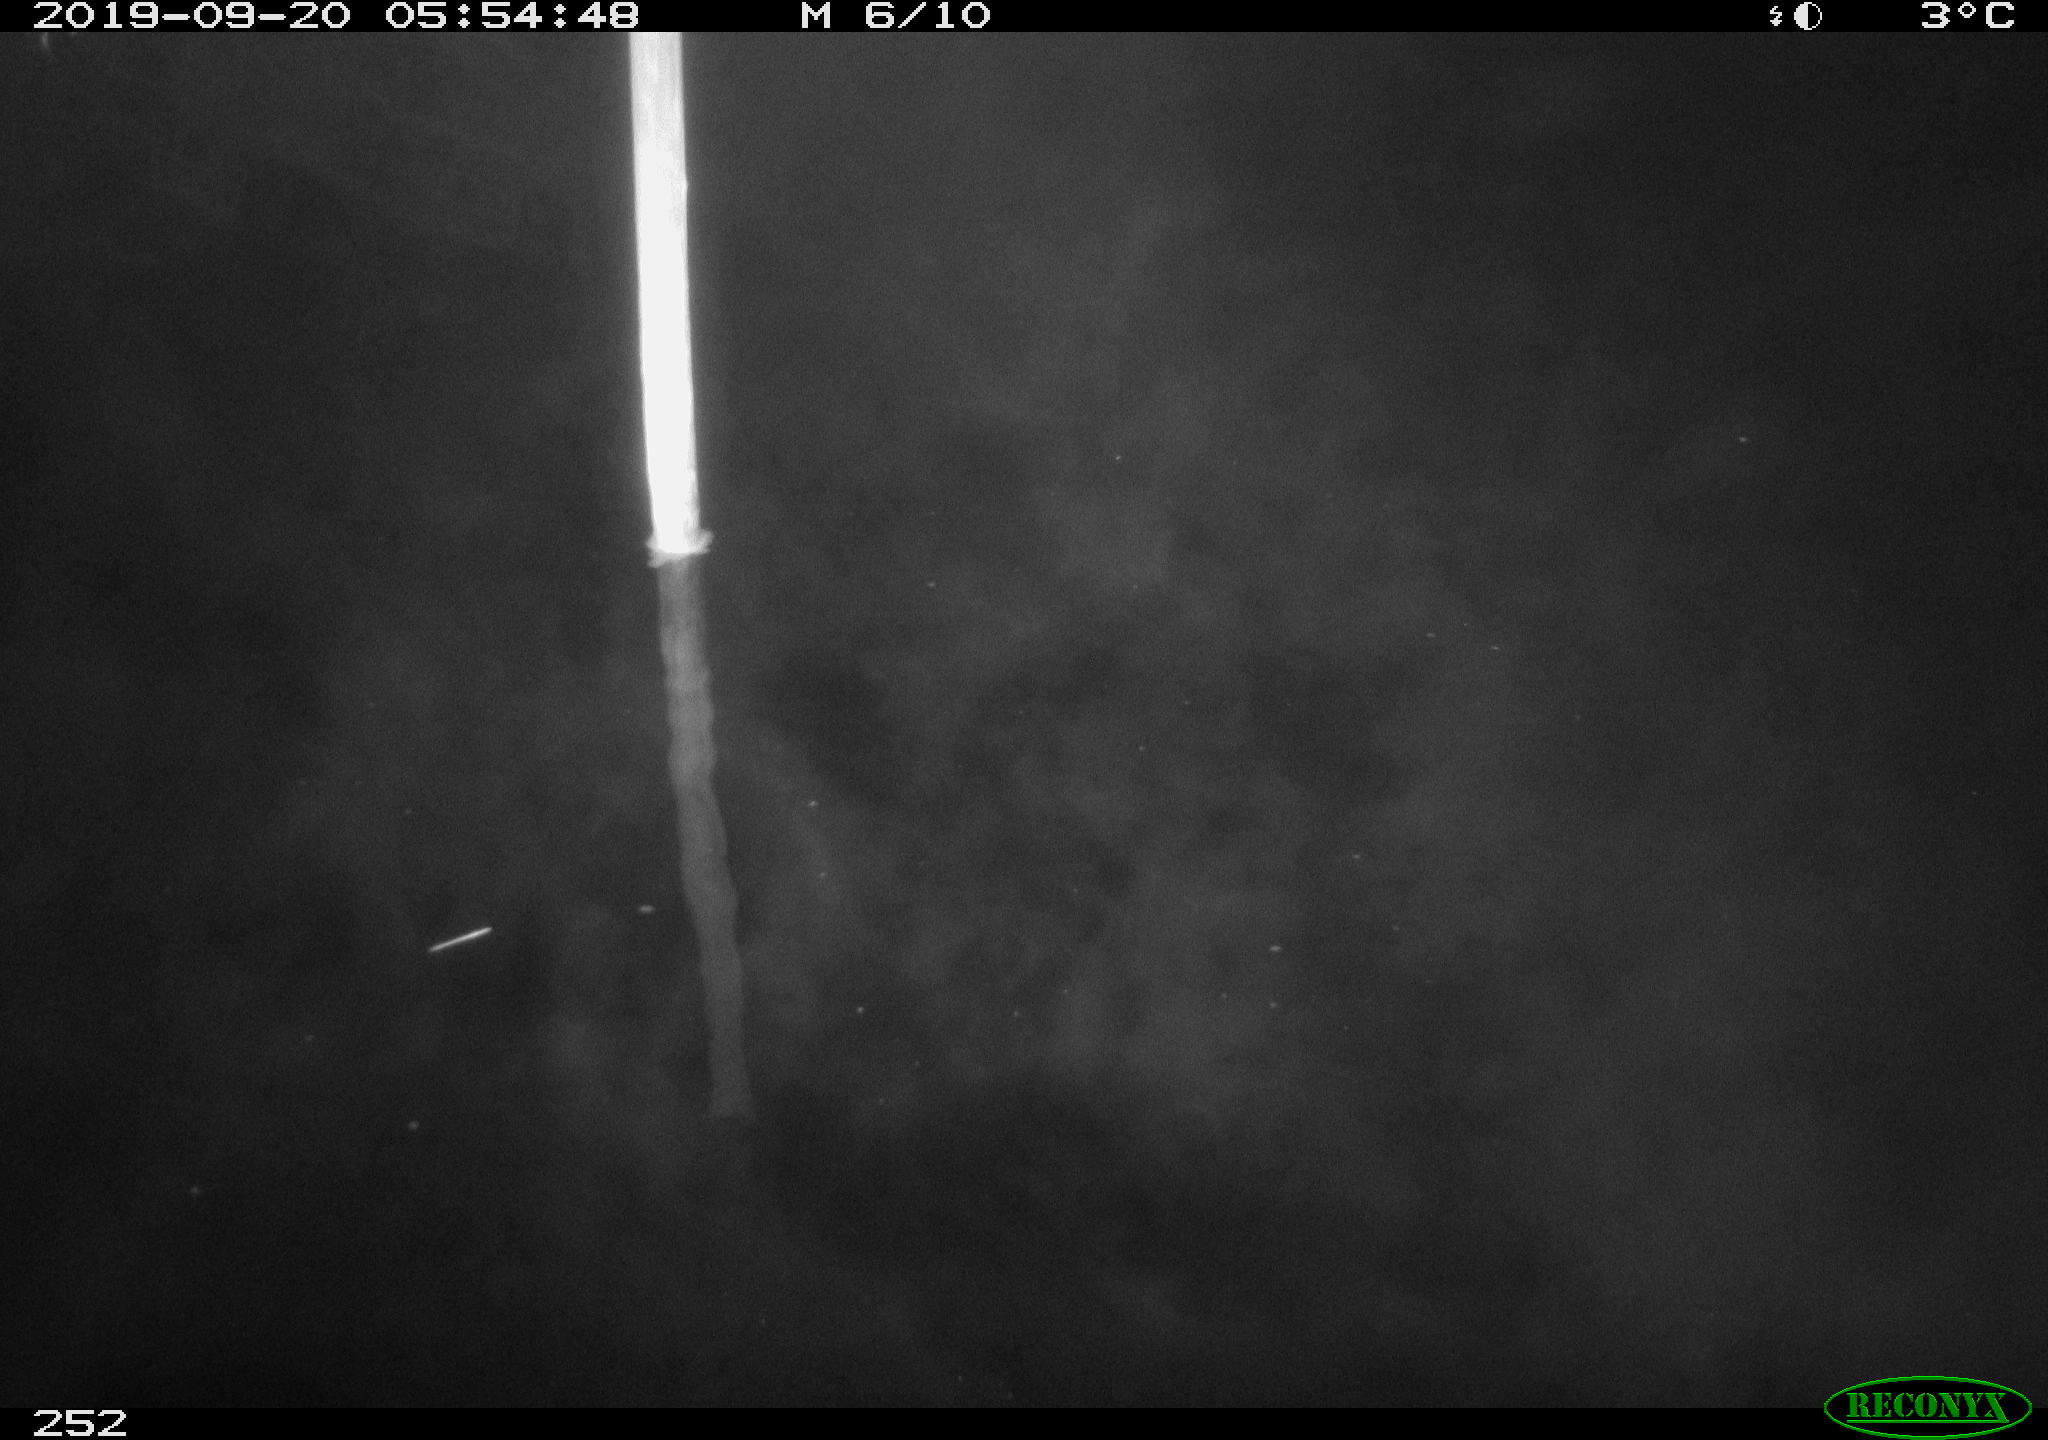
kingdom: Animalia
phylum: Chordata
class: Aves
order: Anseriformes
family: Anatidae
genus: Anas
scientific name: Anas platyrhynchos
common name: Mallard
